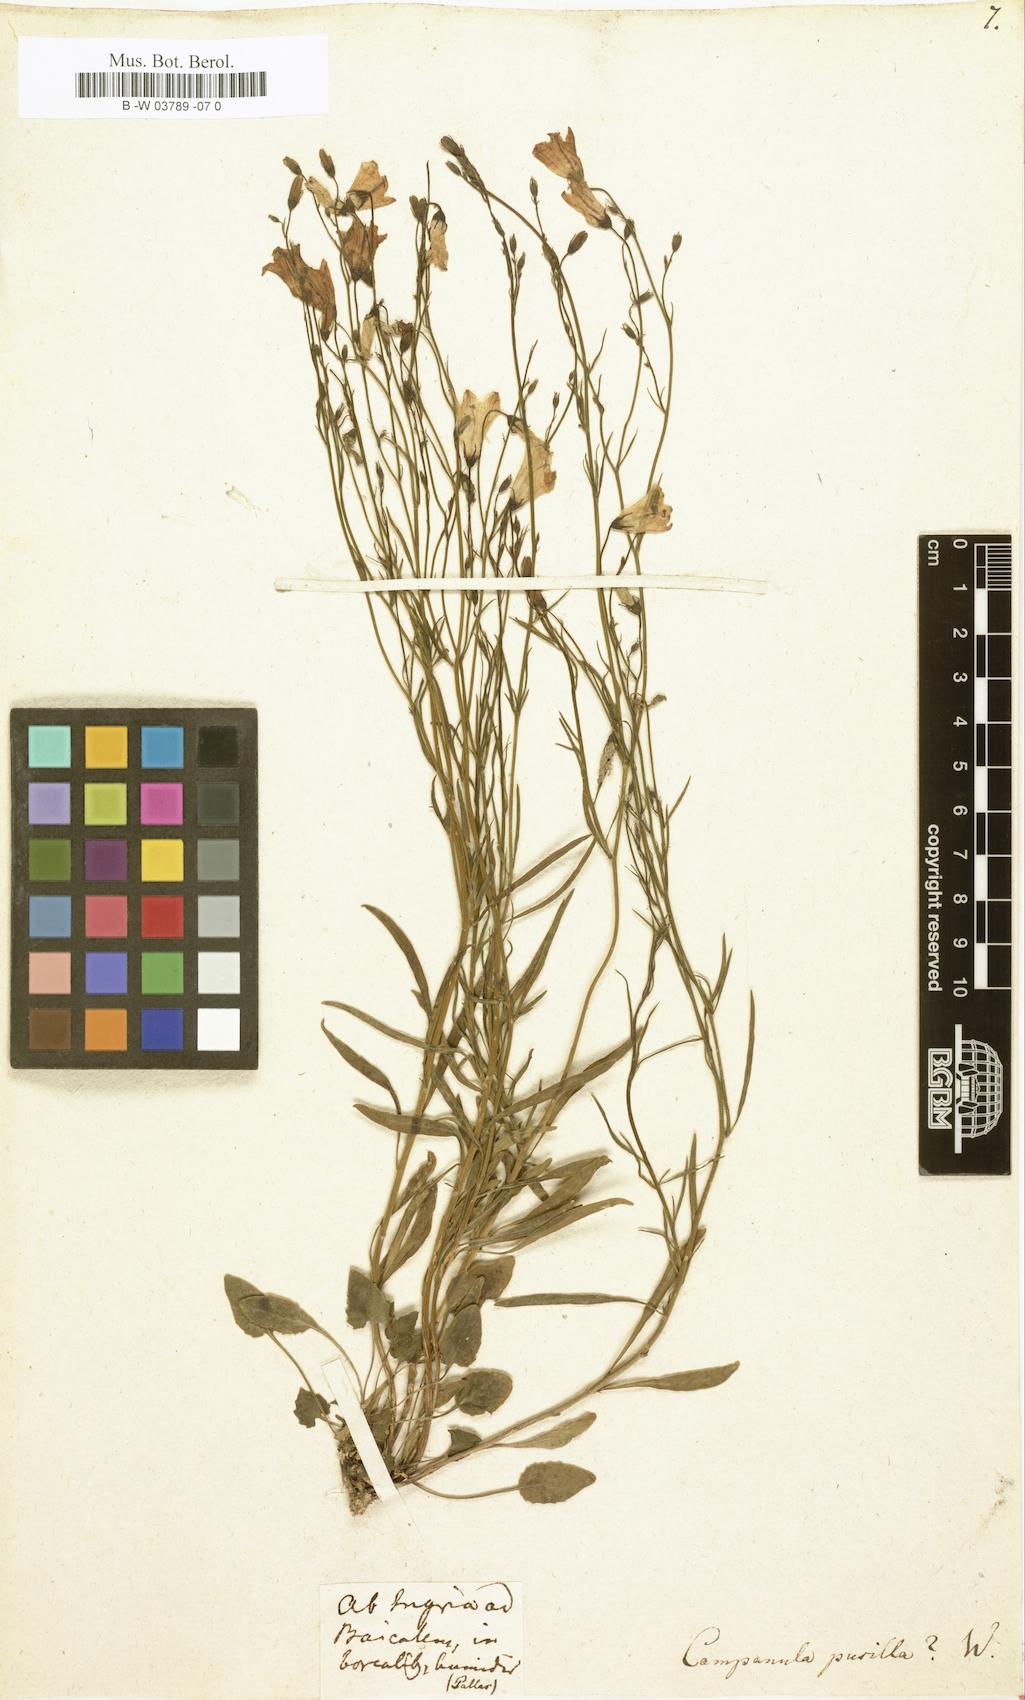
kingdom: Plantae
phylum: Tracheophyta
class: Magnoliopsida
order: Asterales
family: Campanulaceae
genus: Campanula
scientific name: Campanula cochleariifolia
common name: Fairies'-thimbles
